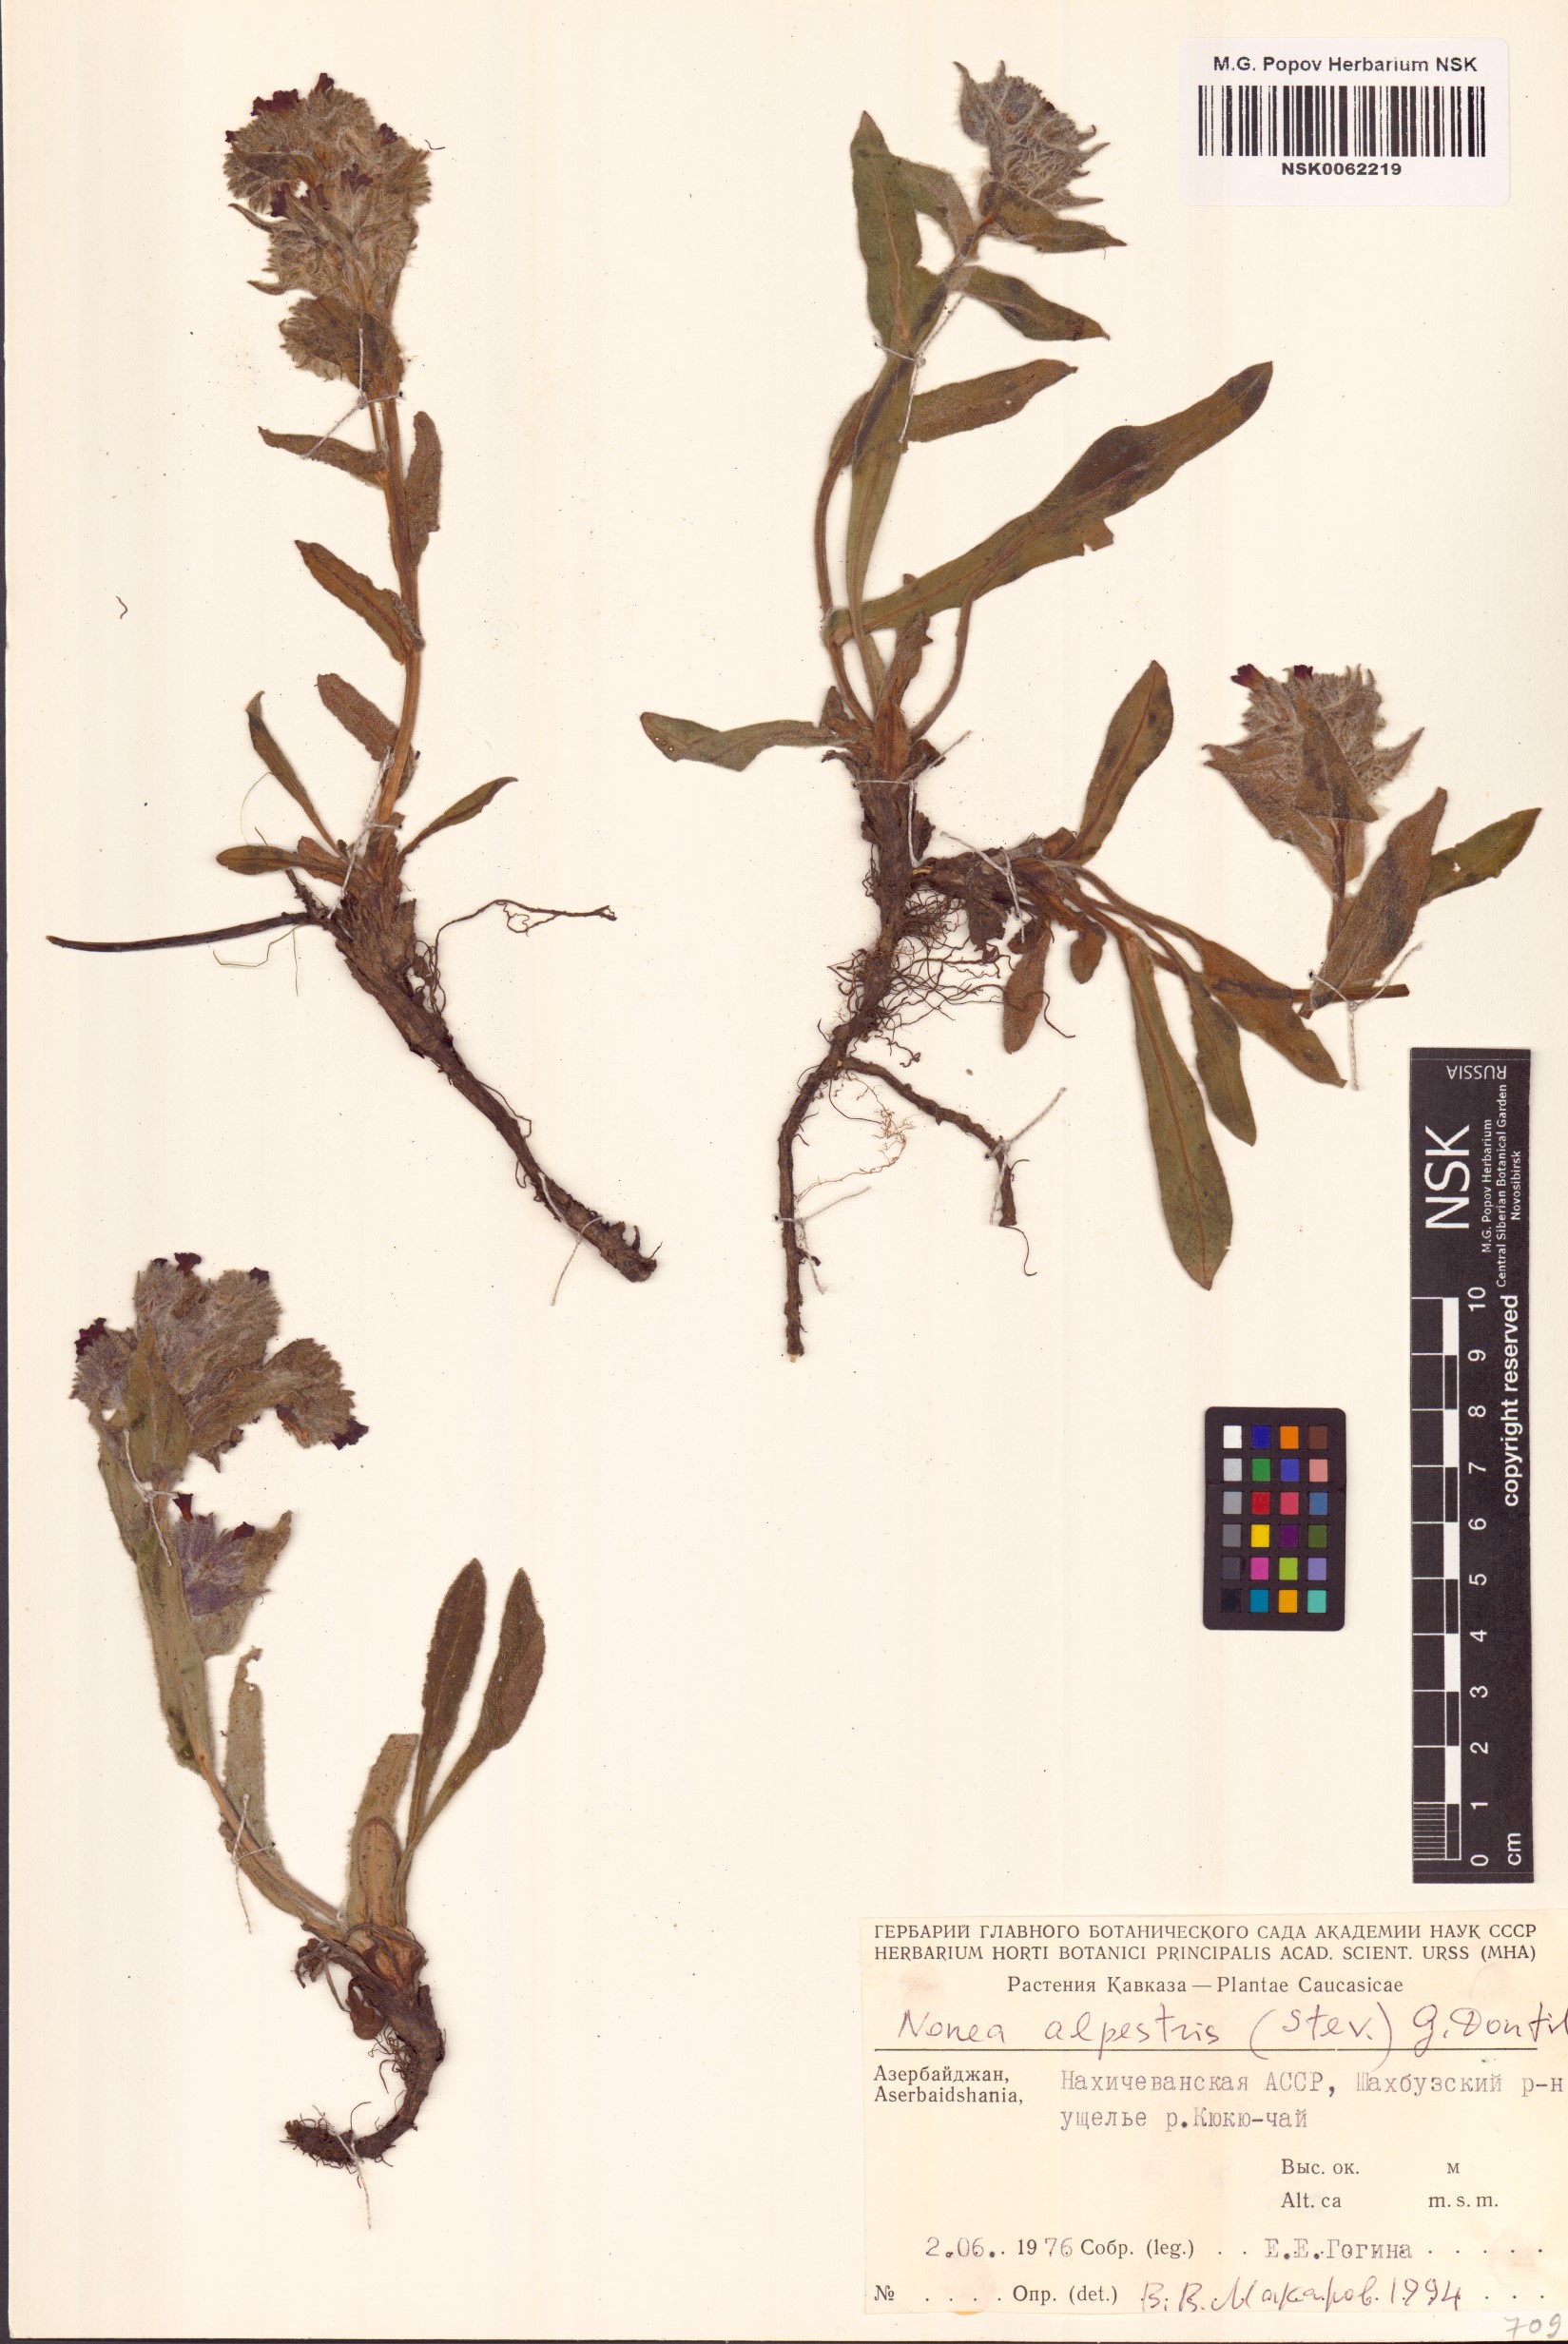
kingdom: Plantae
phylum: Tracheophyta
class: Magnoliopsida
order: Boraginales
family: Boraginaceae
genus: Nonea
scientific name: Nonea alpestris
